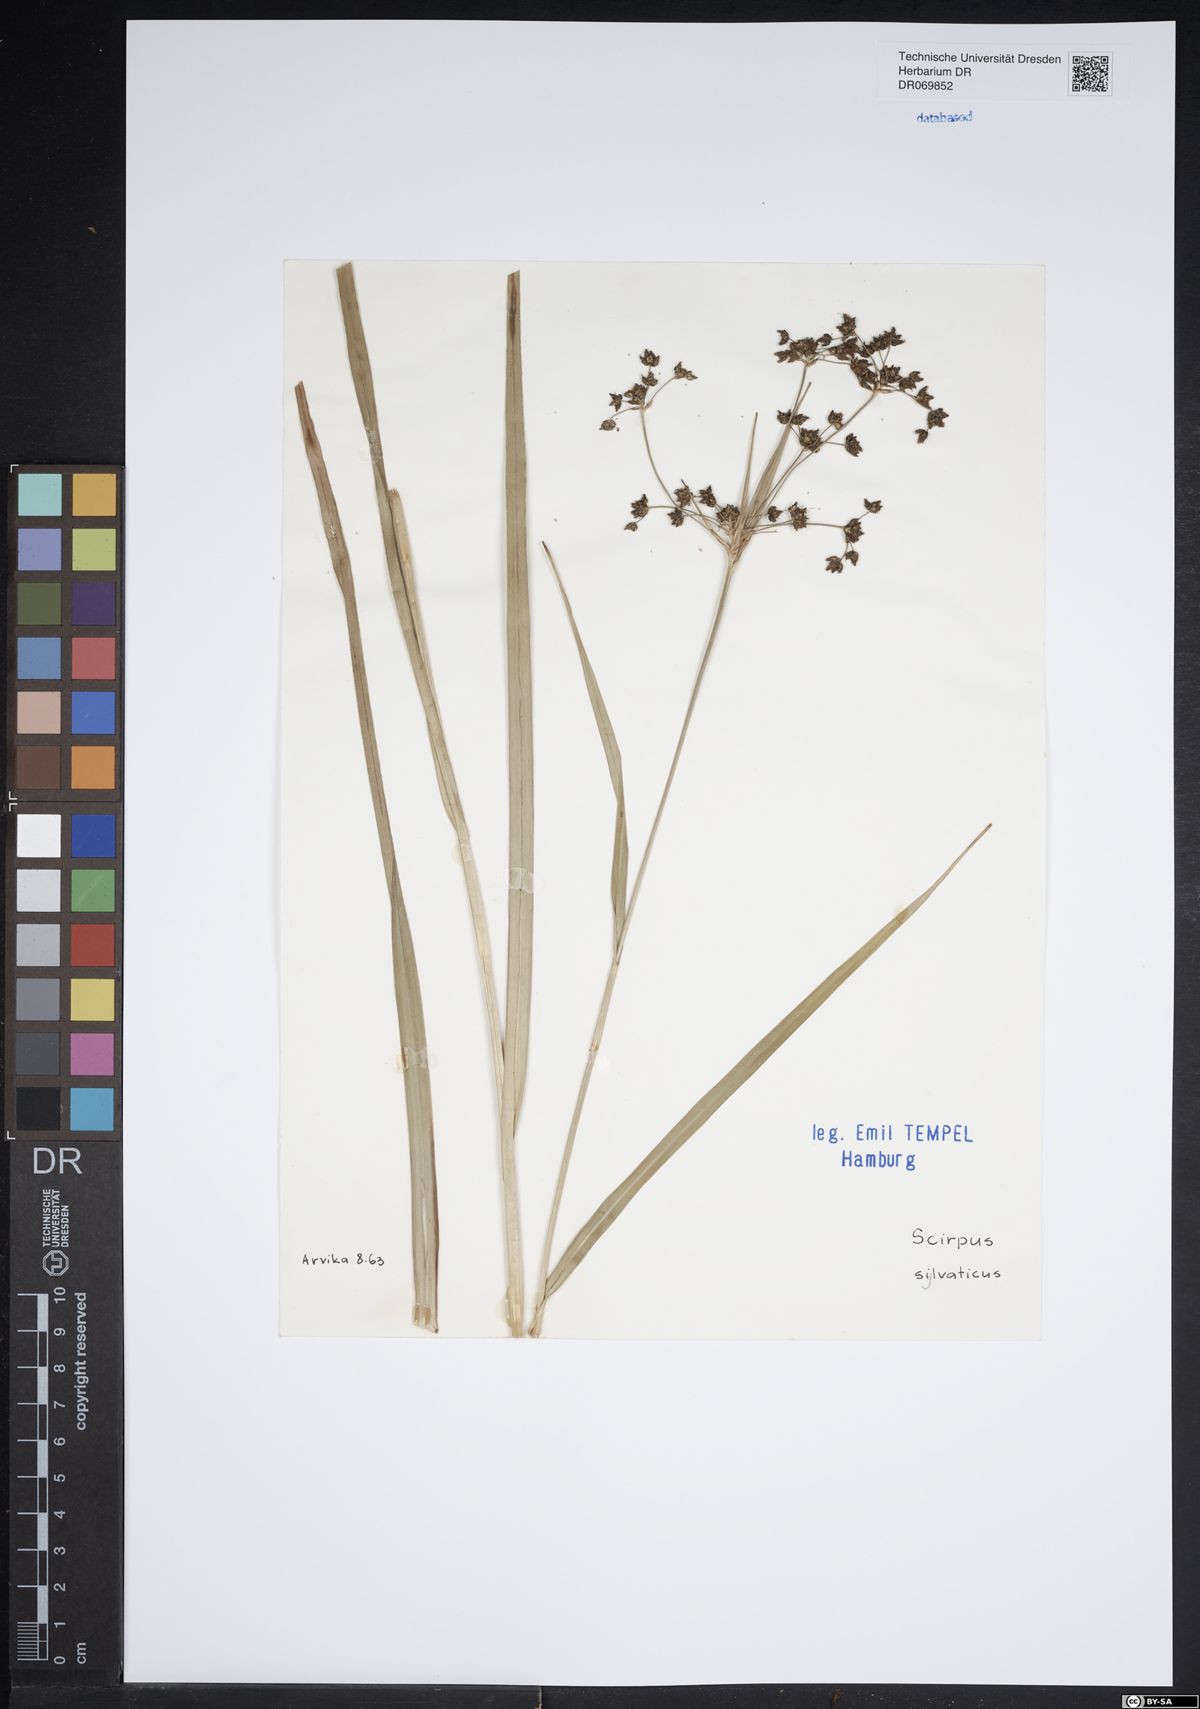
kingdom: Plantae
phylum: Tracheophyta
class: Liliopsida
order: Poales
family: Cyperaceae
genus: Scirpus
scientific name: Scirpus sylvaticus
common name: Wood club-rush
